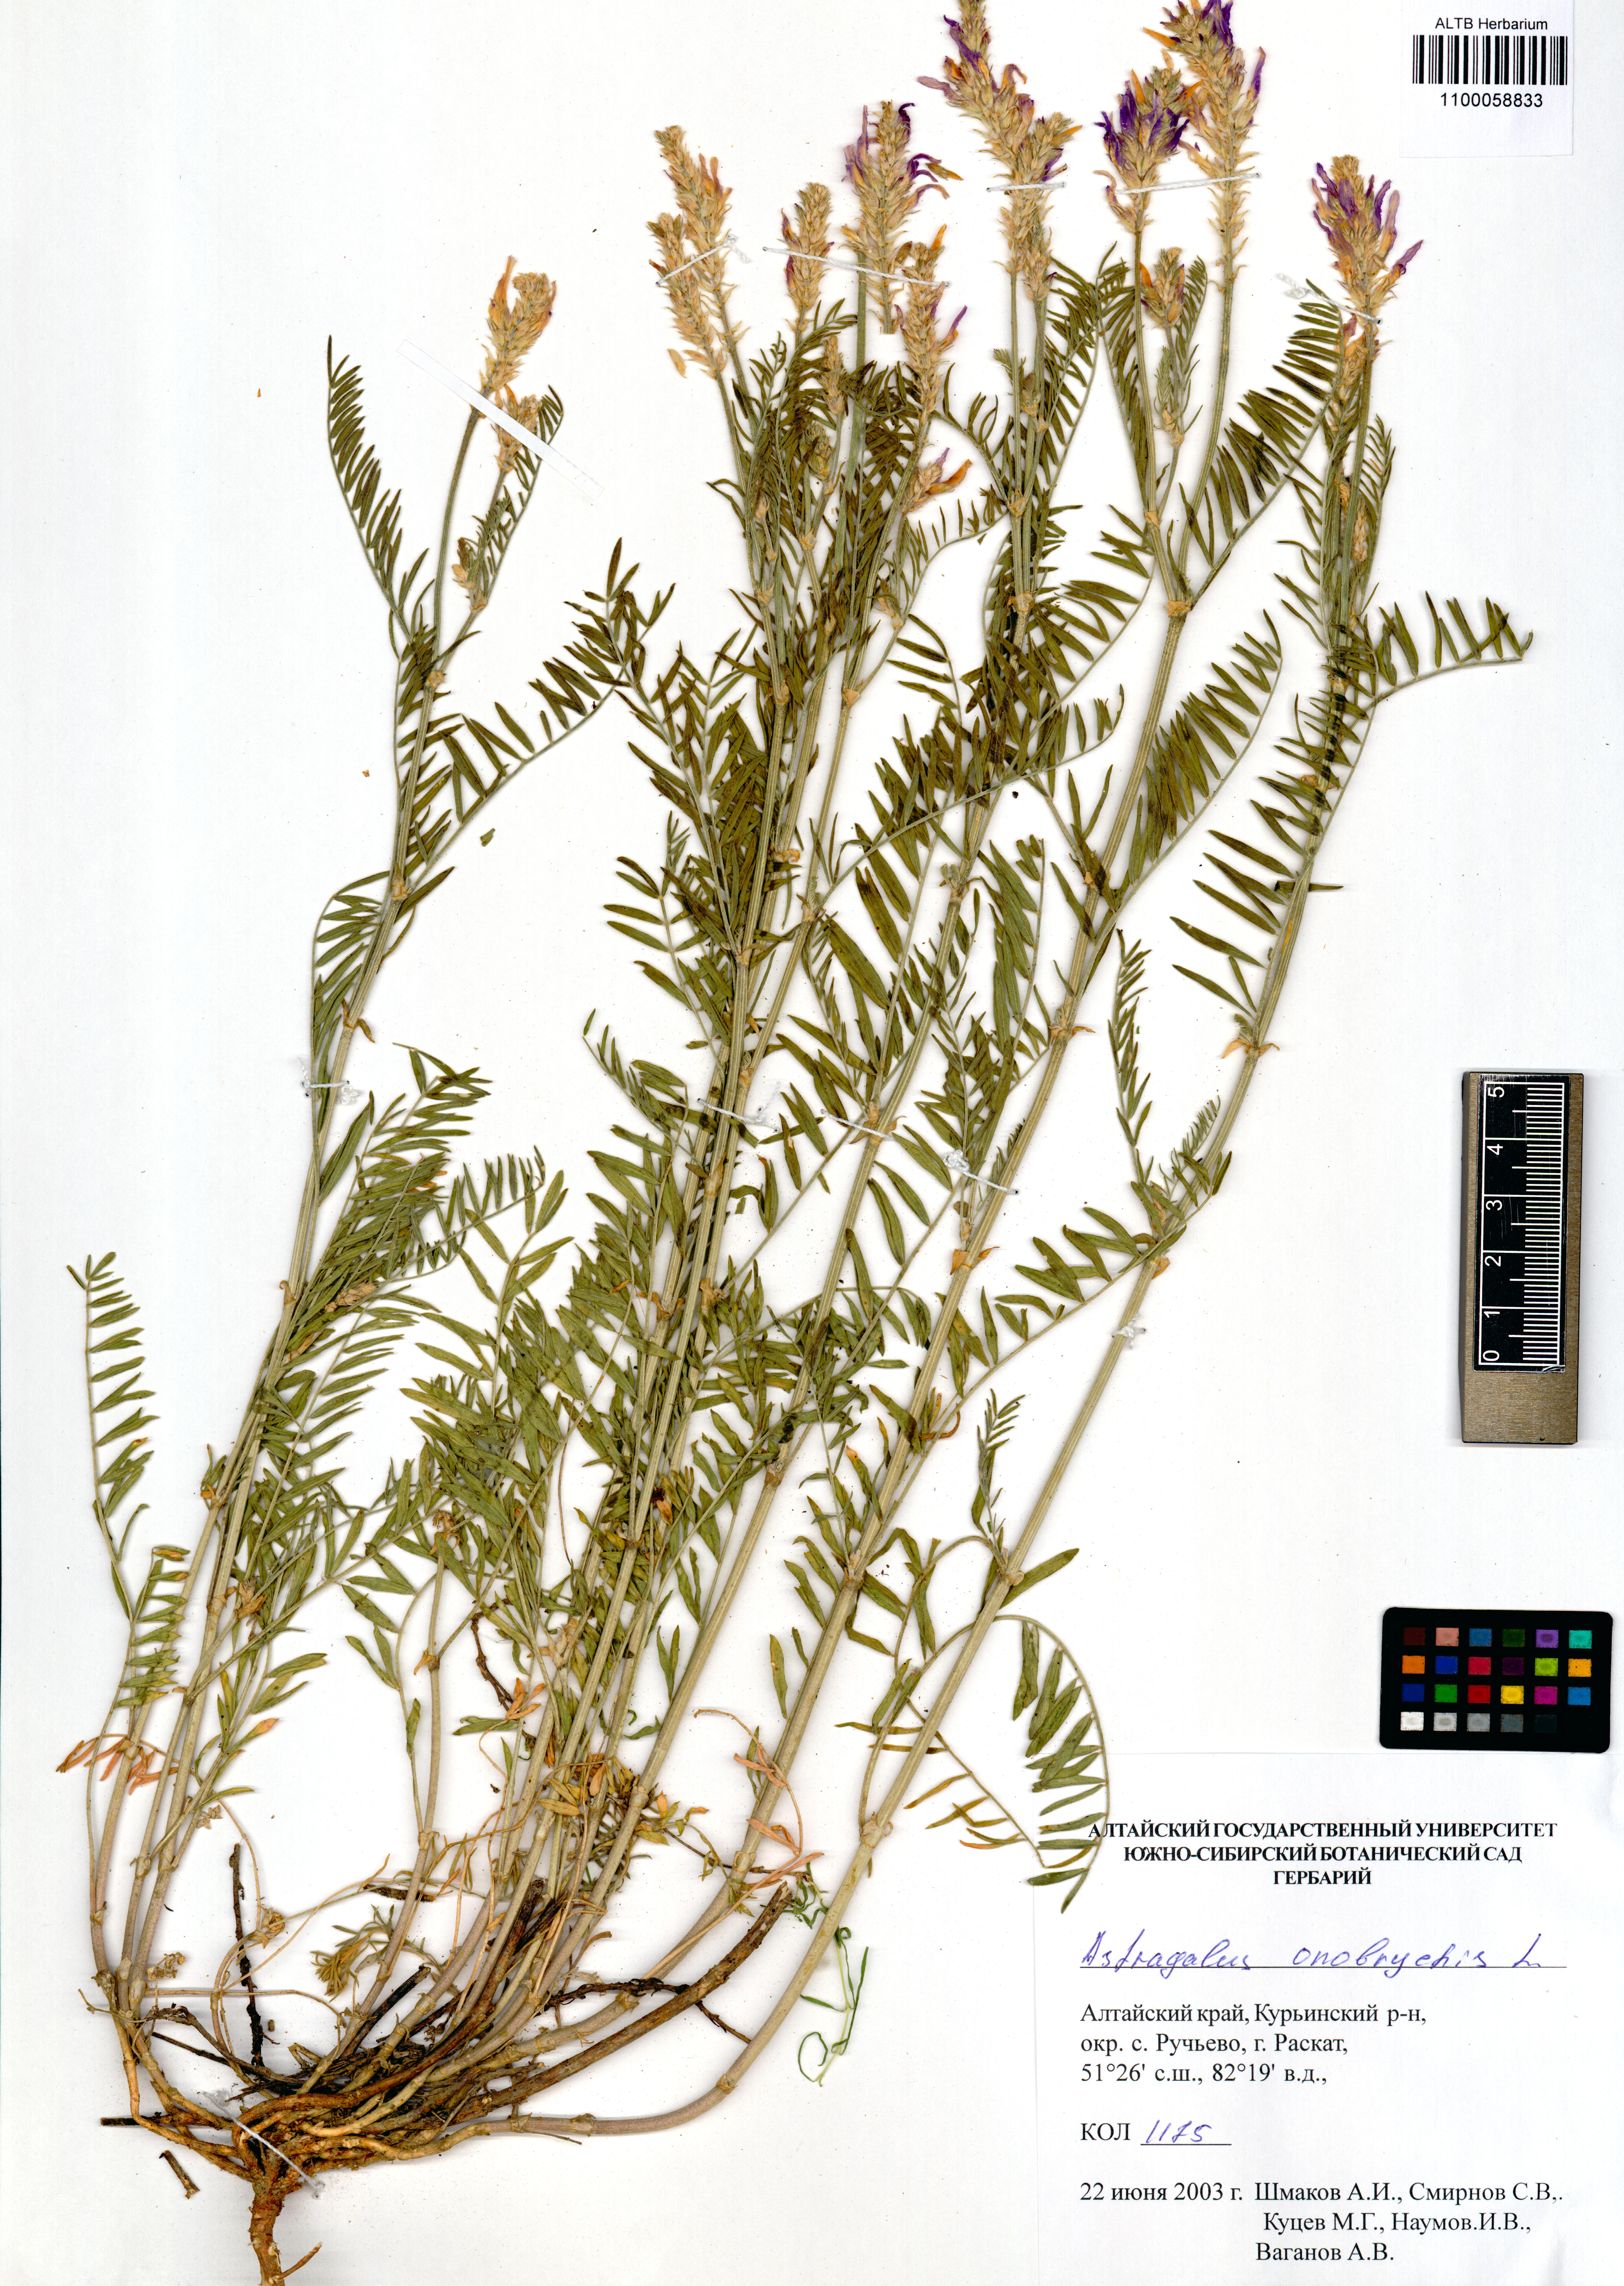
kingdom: Plantae
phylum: Tracheophyta
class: Magnoliopsida
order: Fabales
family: Fabaceae
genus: Astragalus
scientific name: Astragalus onobrychis
